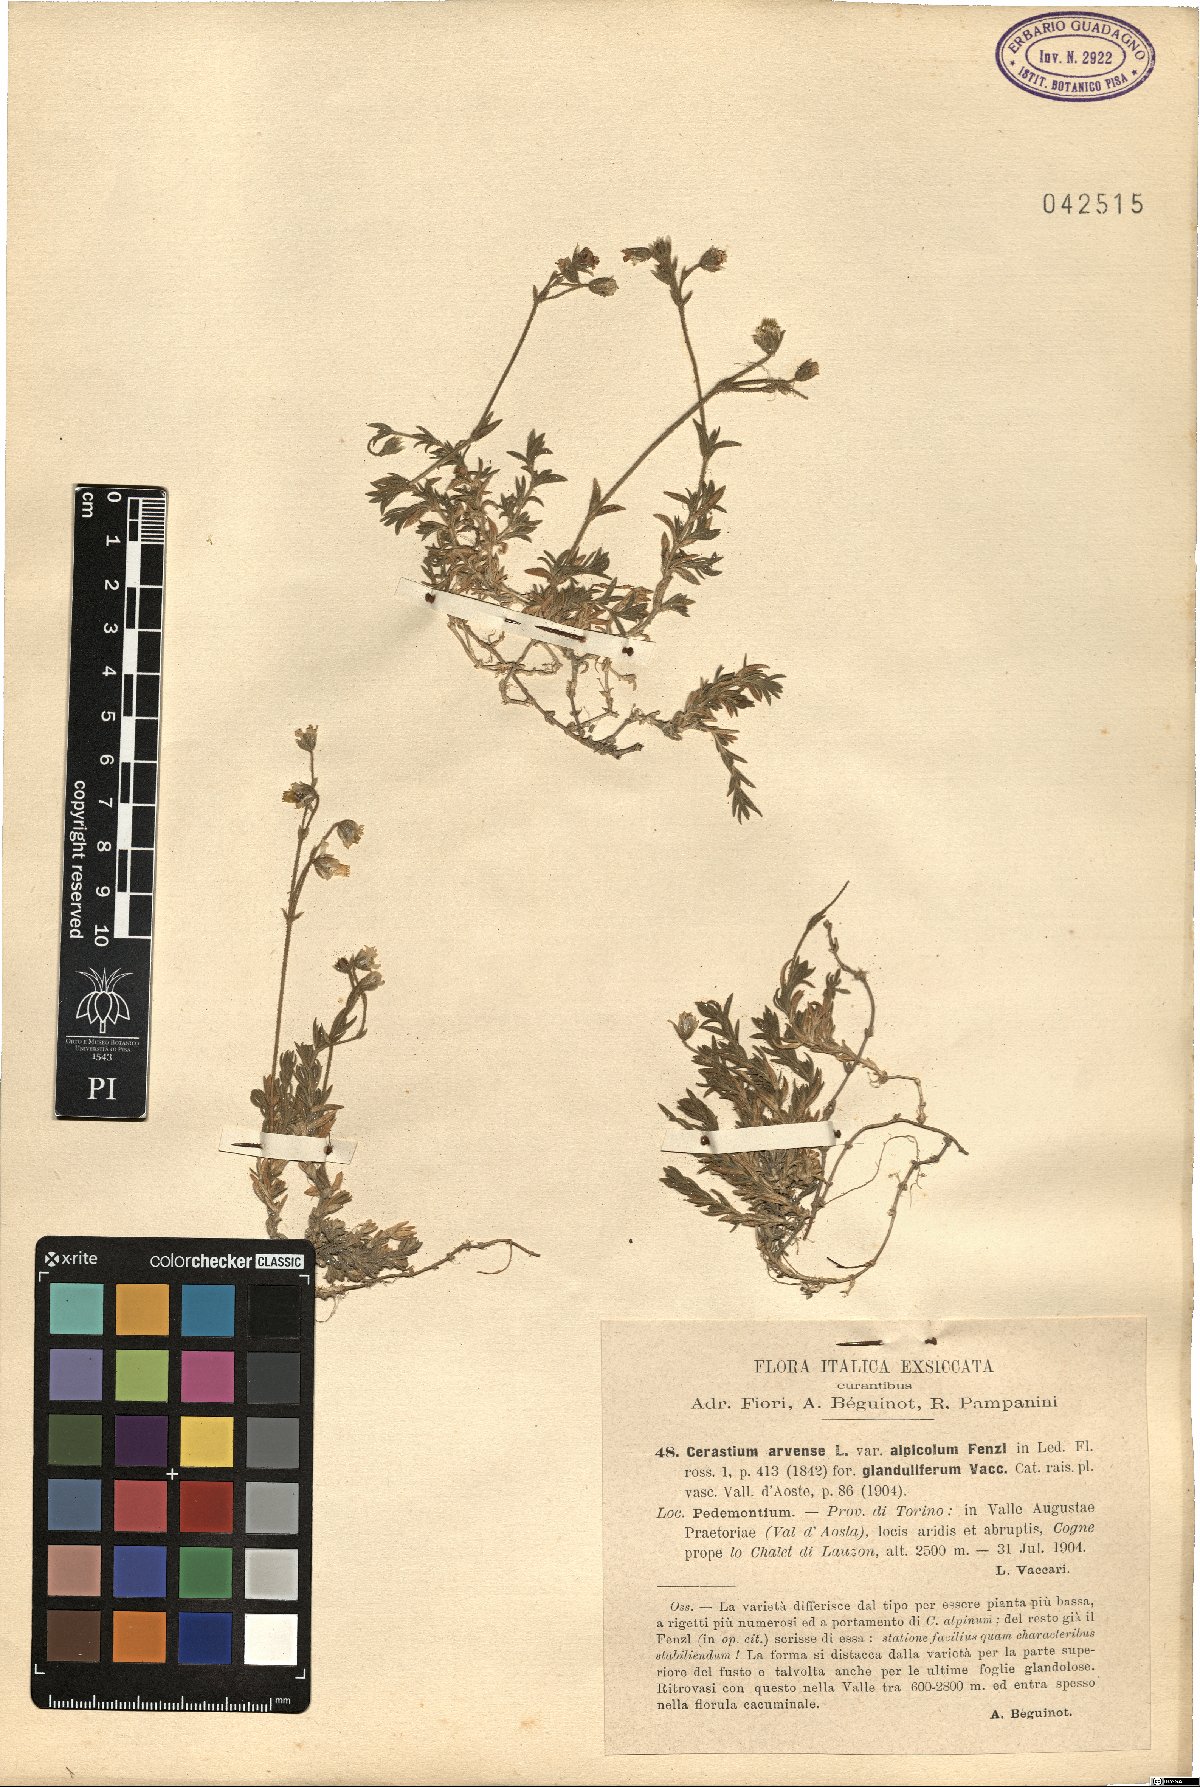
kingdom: Plantae
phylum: Tracheophyta
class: Magnoliopsida
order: Caryophyllales
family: Caryophyllaceae
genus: Cerastium
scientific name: Cerastium arvense
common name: Field mouse-ear
